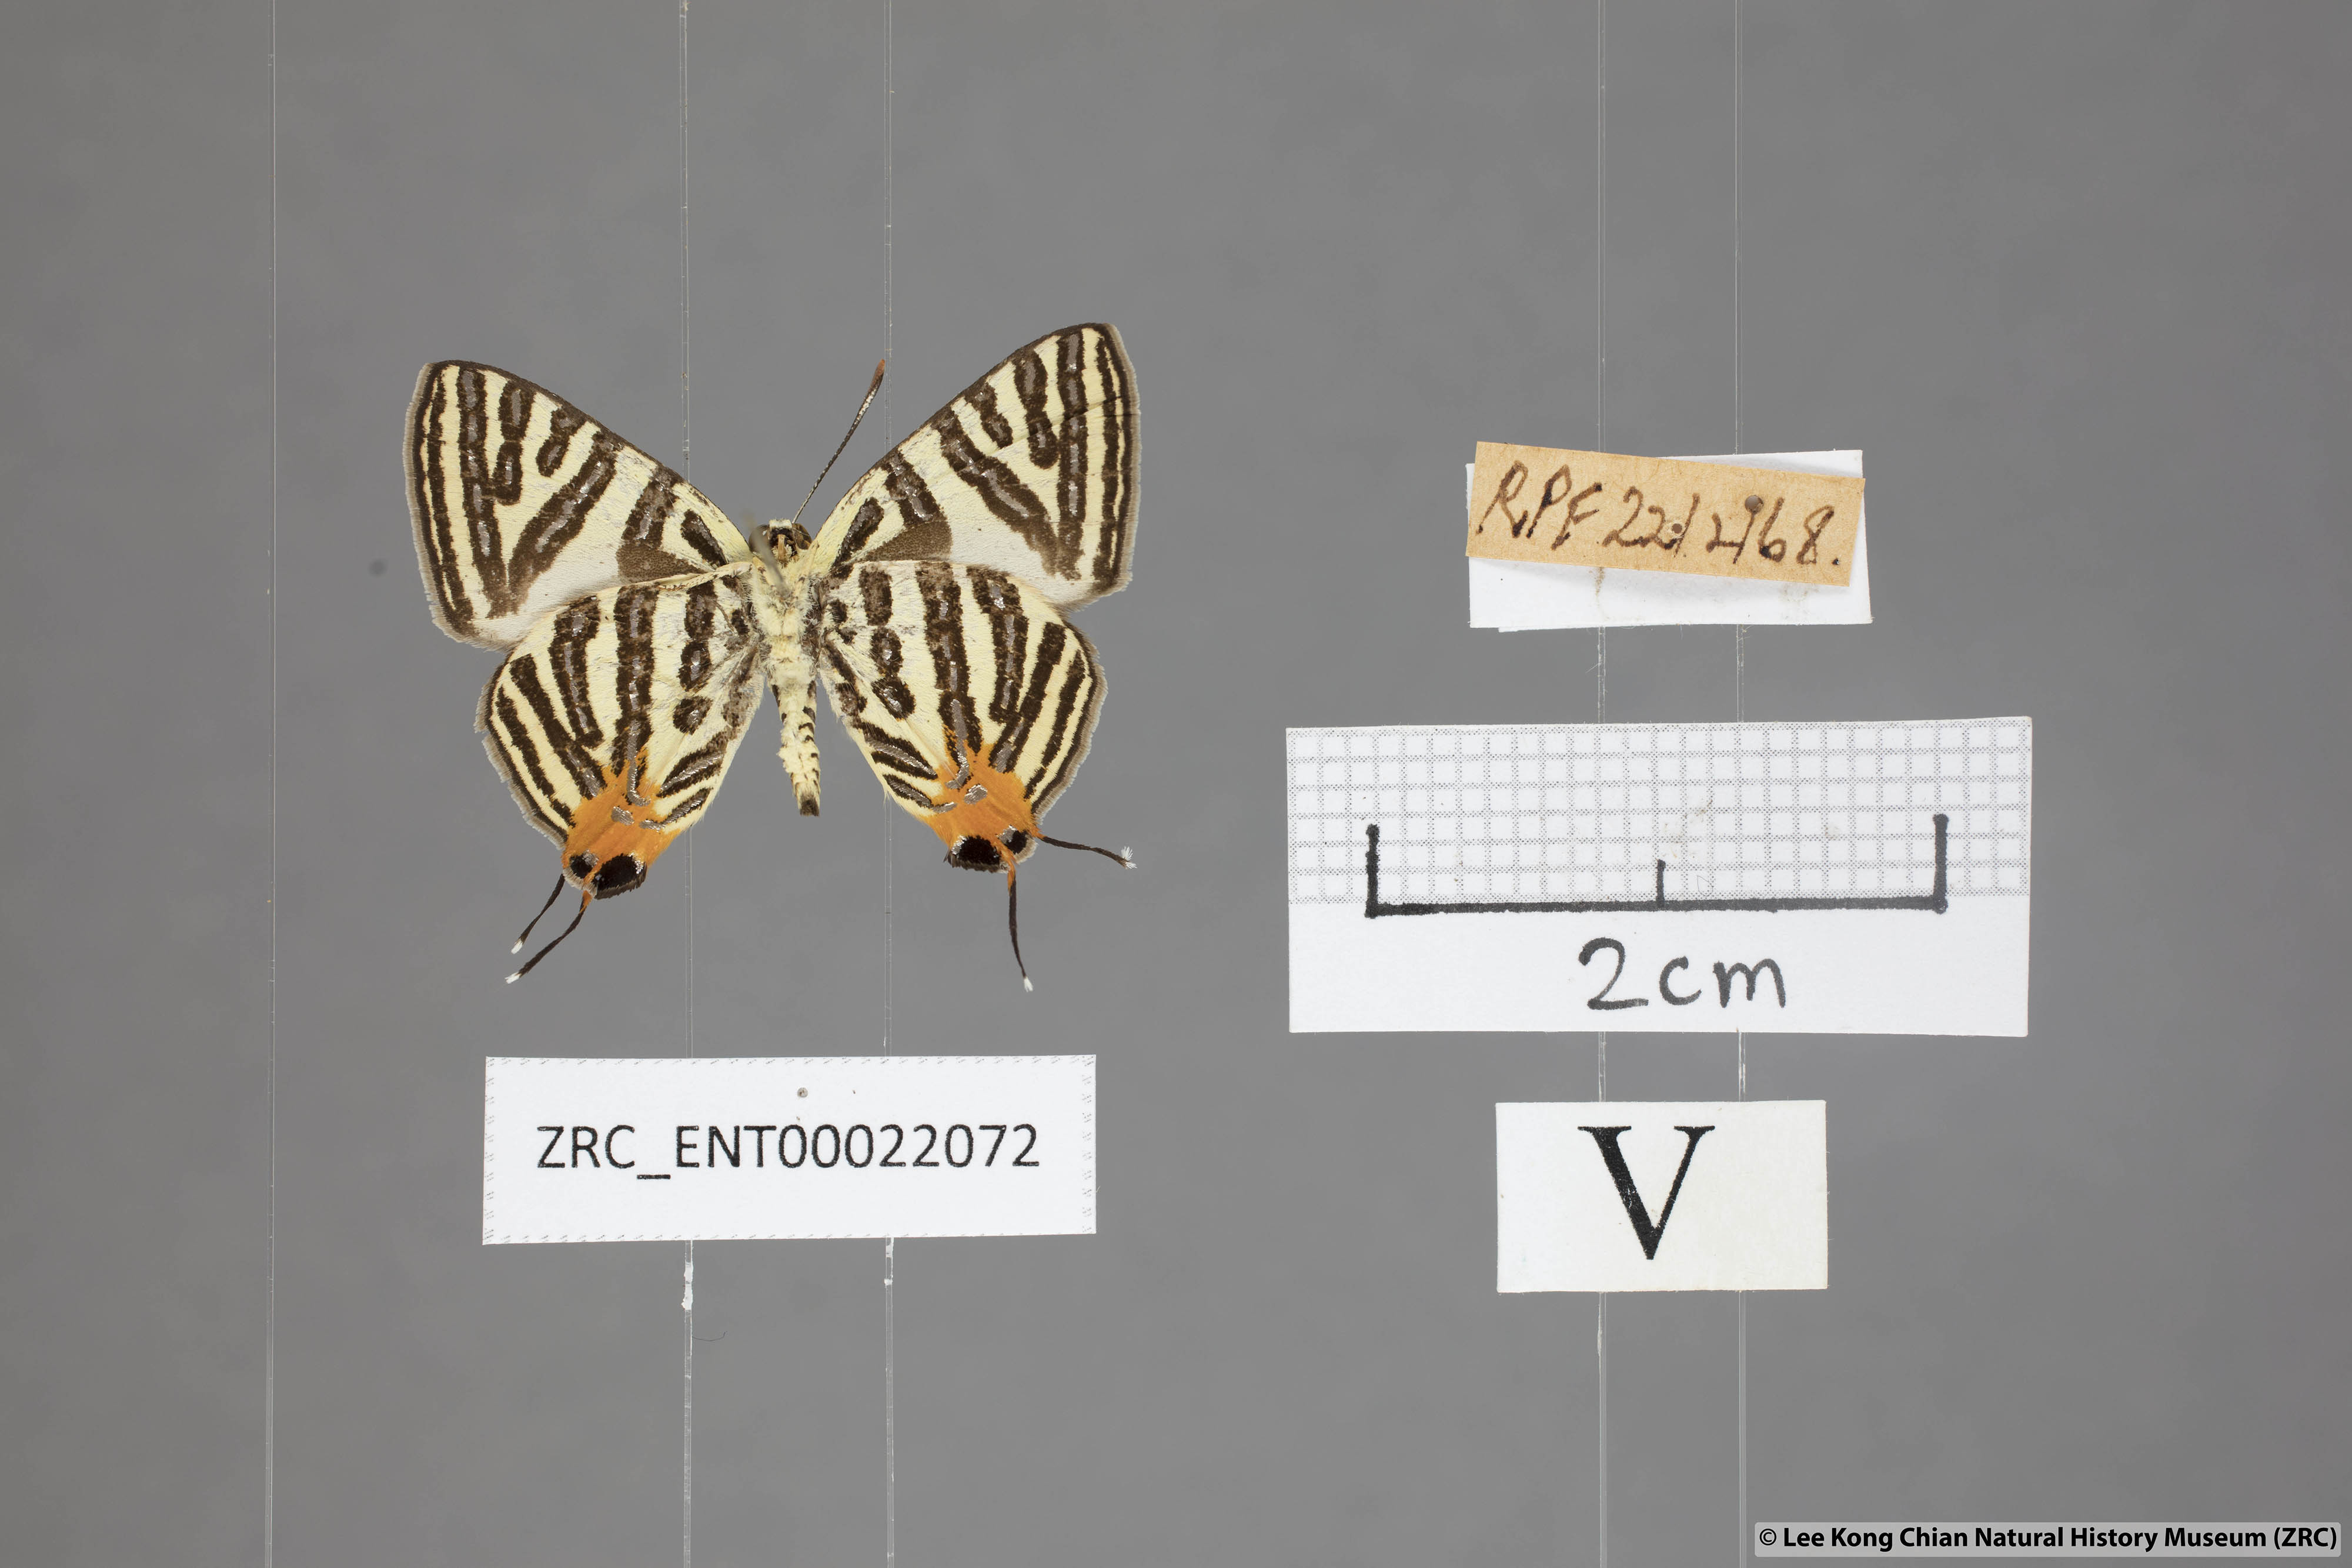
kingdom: Animalia
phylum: Arthropoda
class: Insecta
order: Lepidoptera
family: Lycaenidae
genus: Spindasis
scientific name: Spindasis lohita
